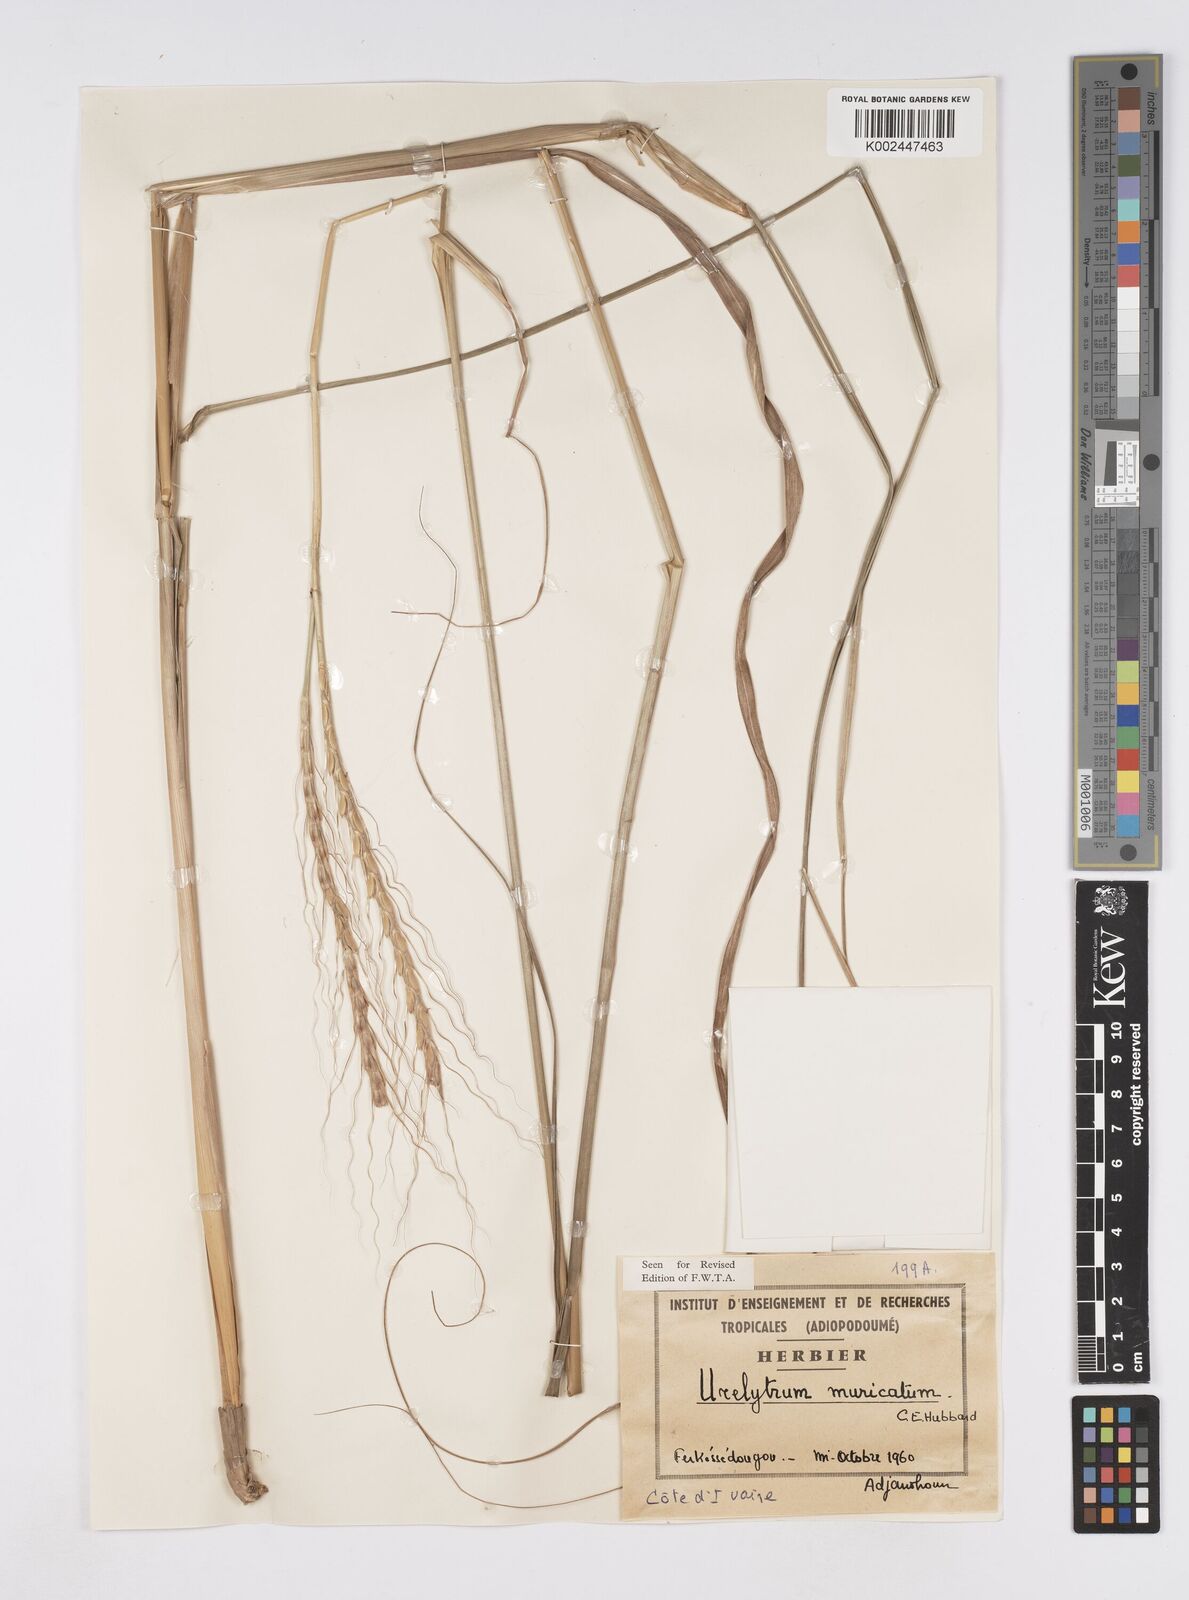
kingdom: Plantae
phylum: Tracheophyta
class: Liliopsida
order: Poales
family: Poaceae
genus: Urelytrum
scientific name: Urelytrum muricatum
